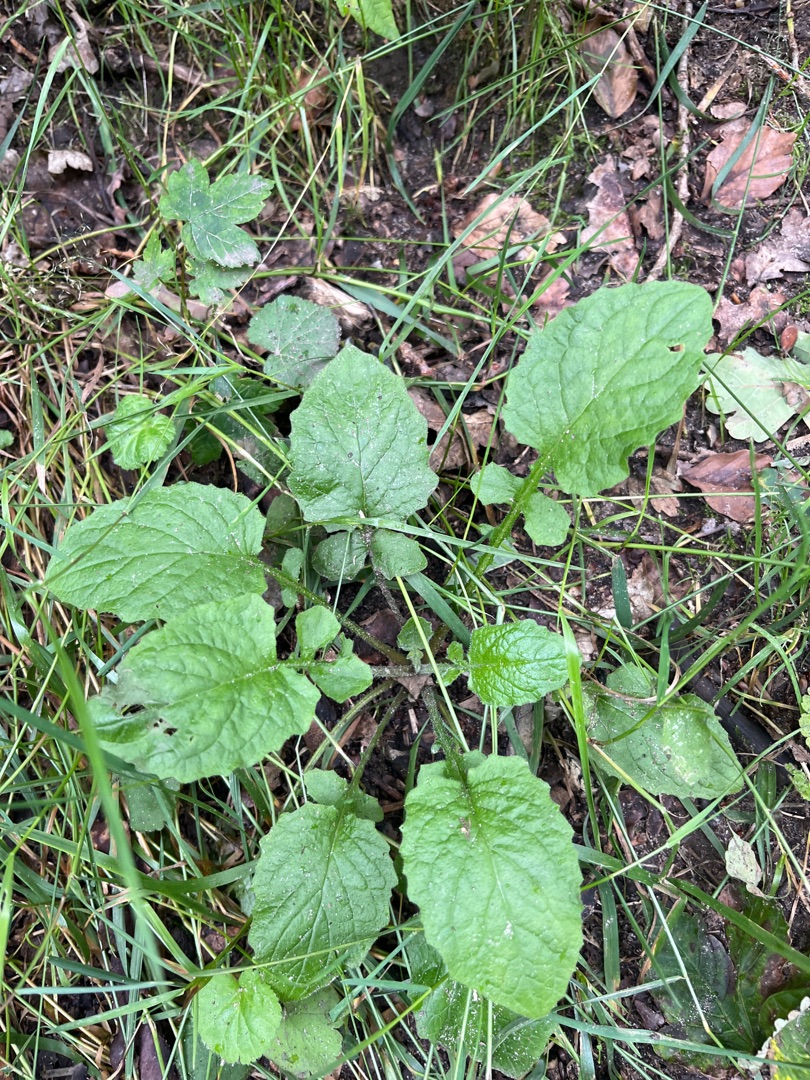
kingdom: Plantae
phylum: Tracheophyta
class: Magnoliopsida
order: Asterales
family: Asteraceae
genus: Lapsana
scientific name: Lapsana communis
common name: Haremad
